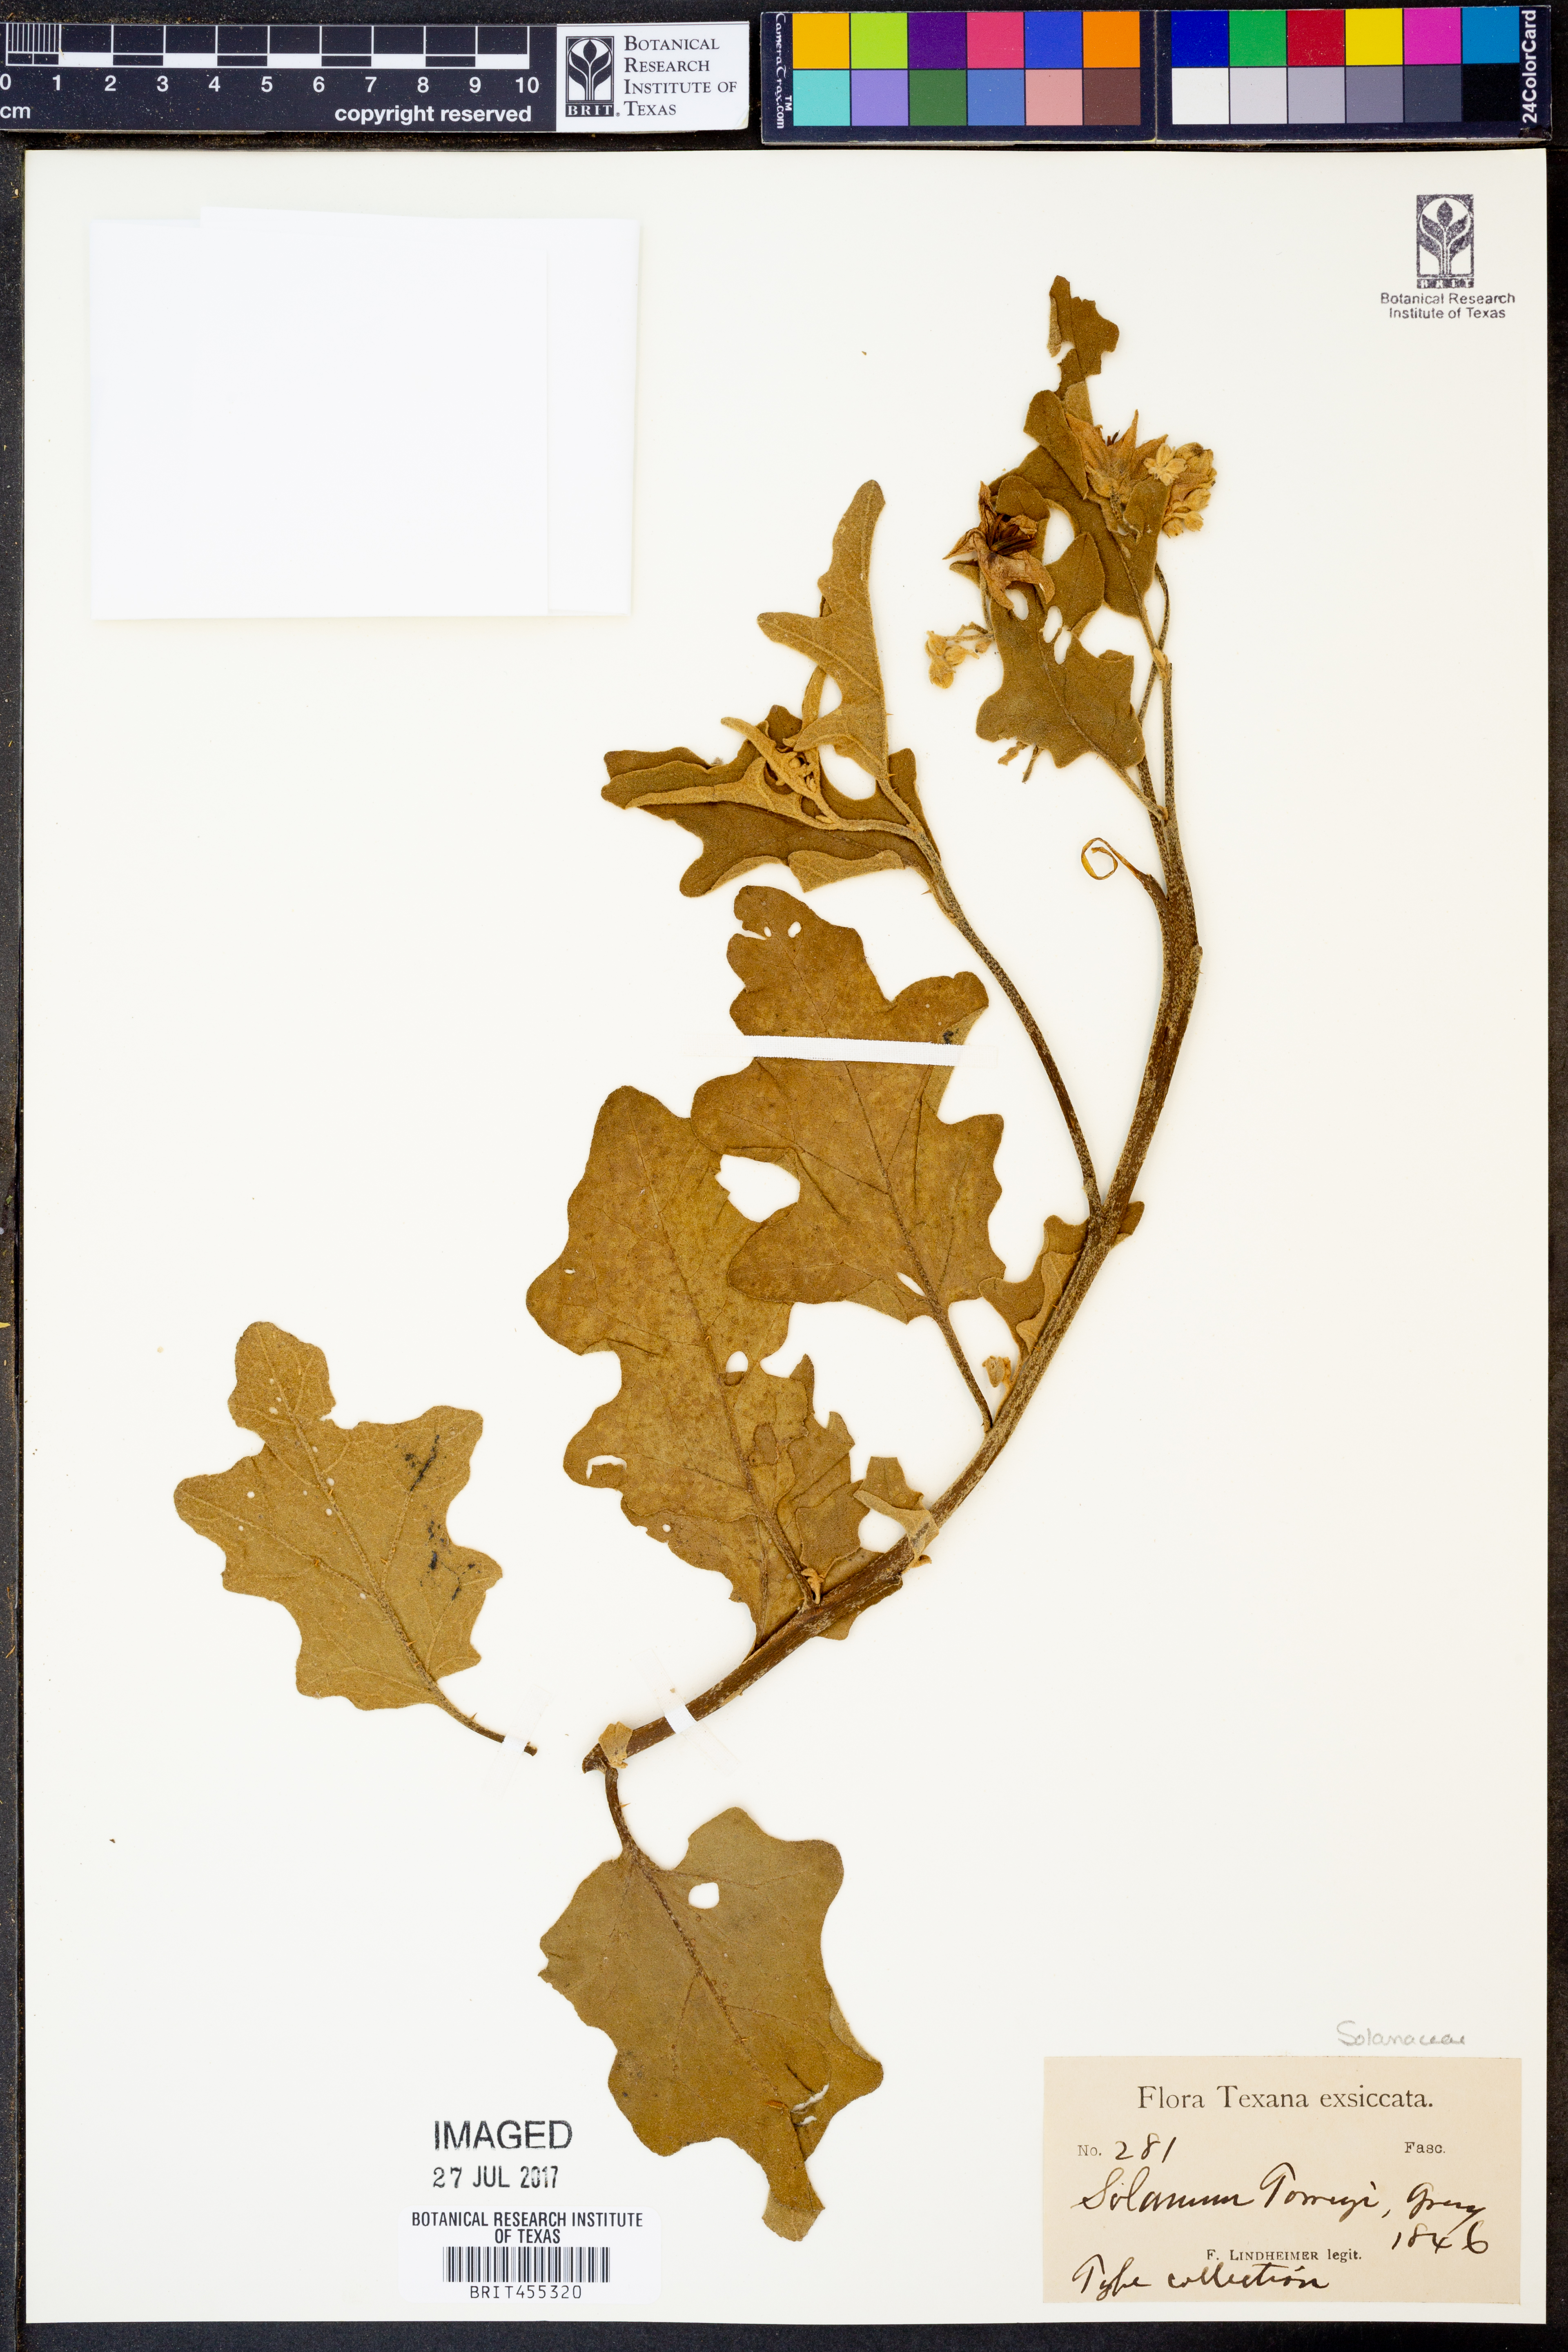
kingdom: Plantae
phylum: Tracheophyta
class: Magnoliopsida
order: Solanales
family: Solanaceae
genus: Solanum
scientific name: Solanum dimidiatum
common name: Carolina horse-nettle
